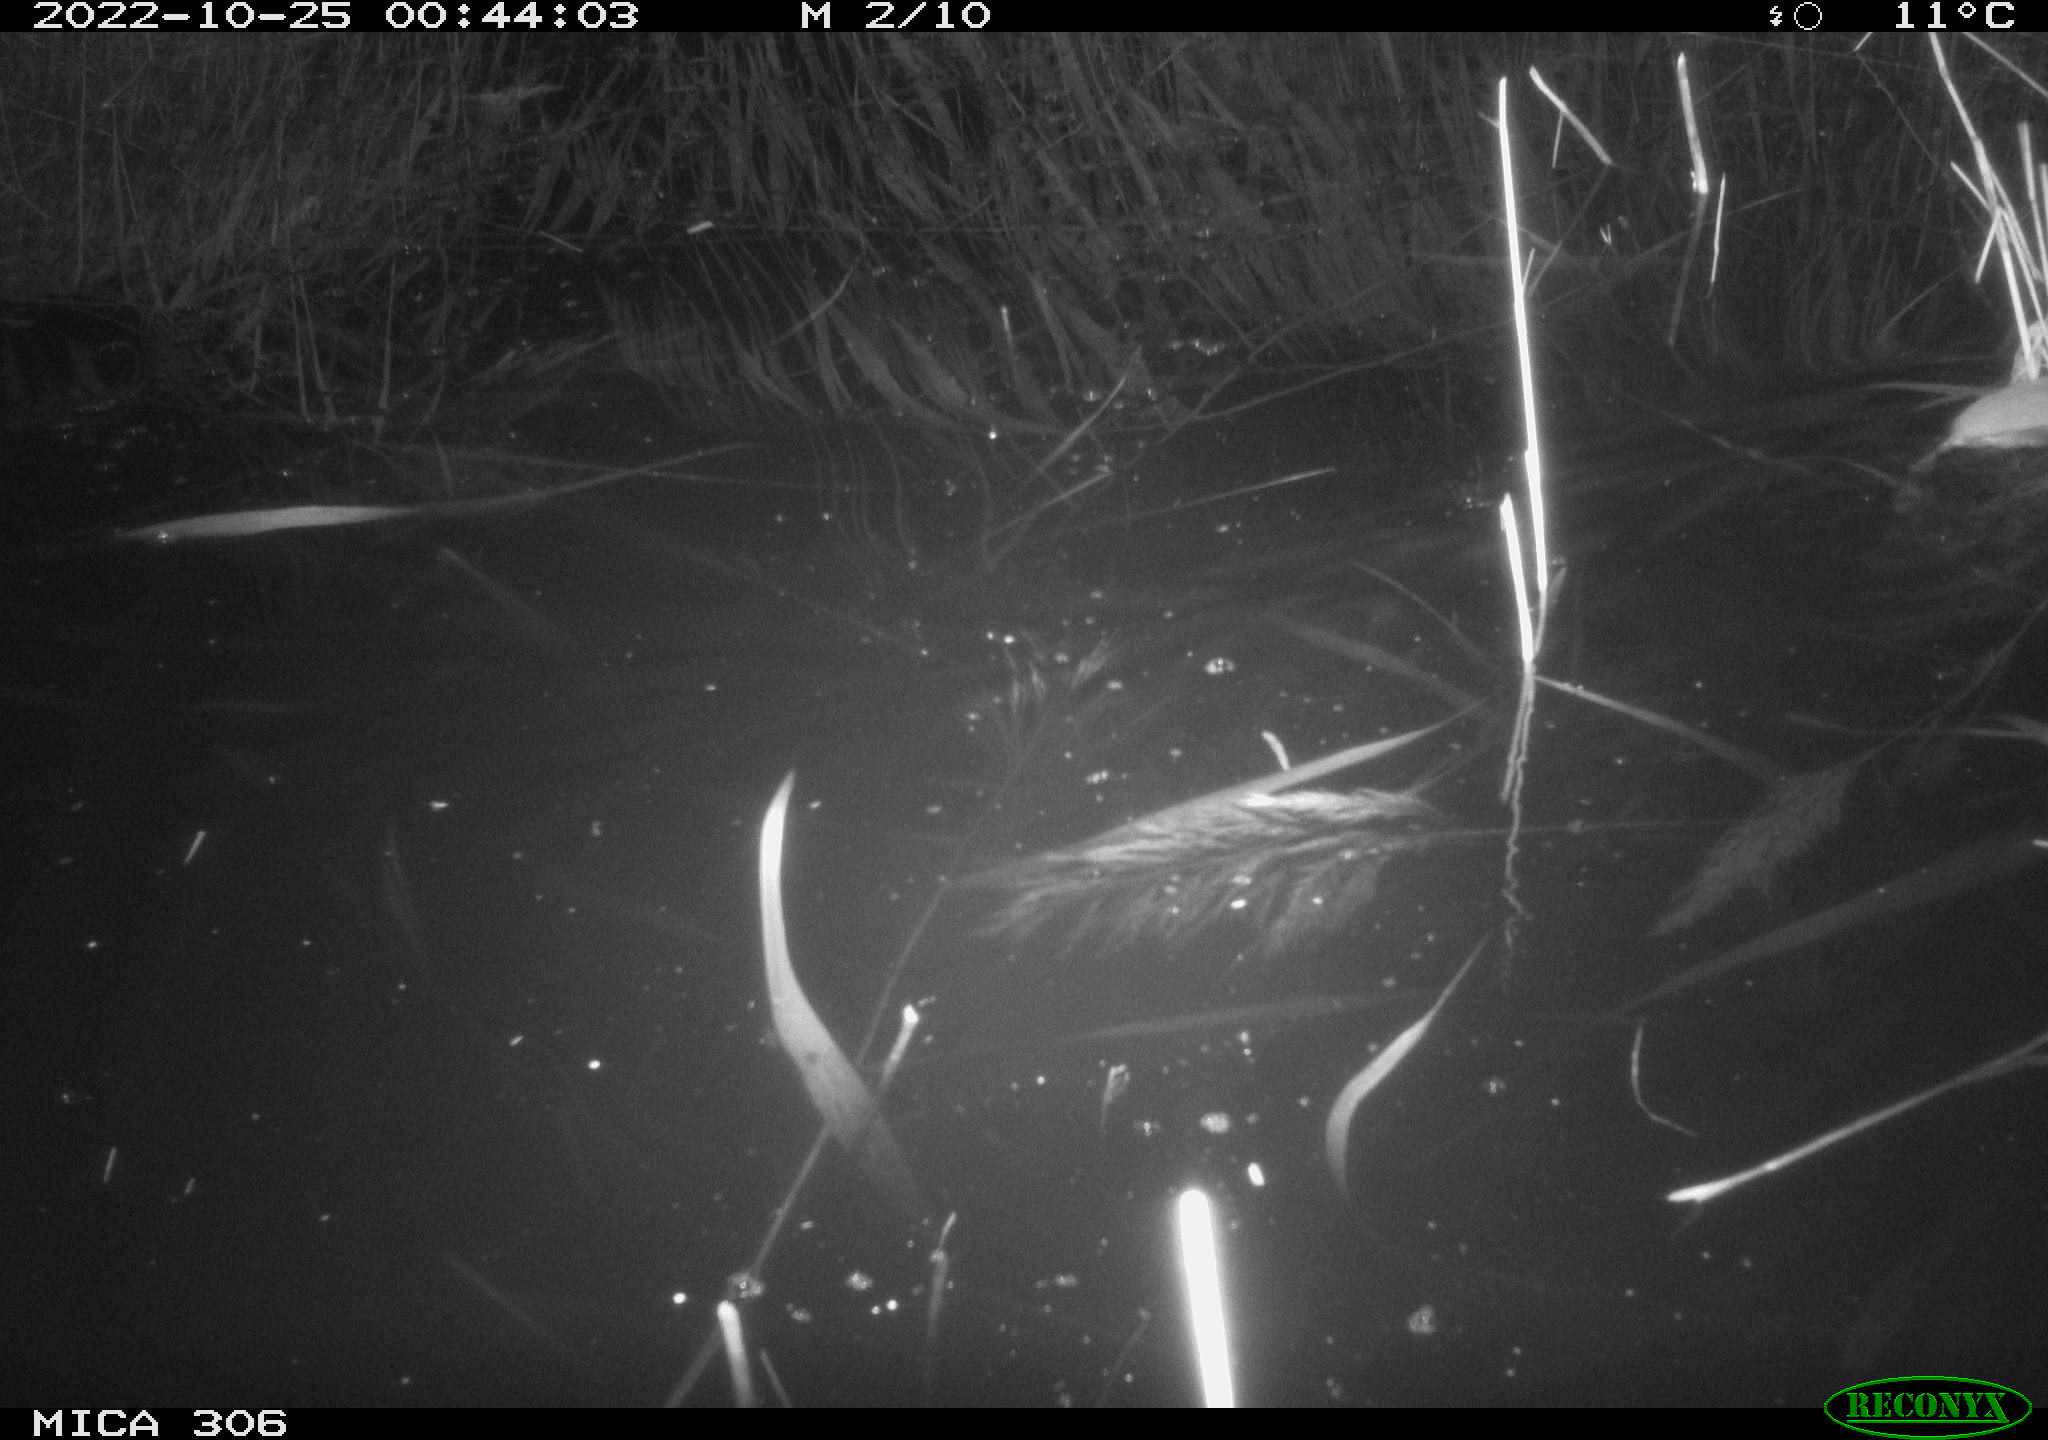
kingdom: Animalia
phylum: Chordata
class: Mammalia
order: Rodentia
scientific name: Rodentia
